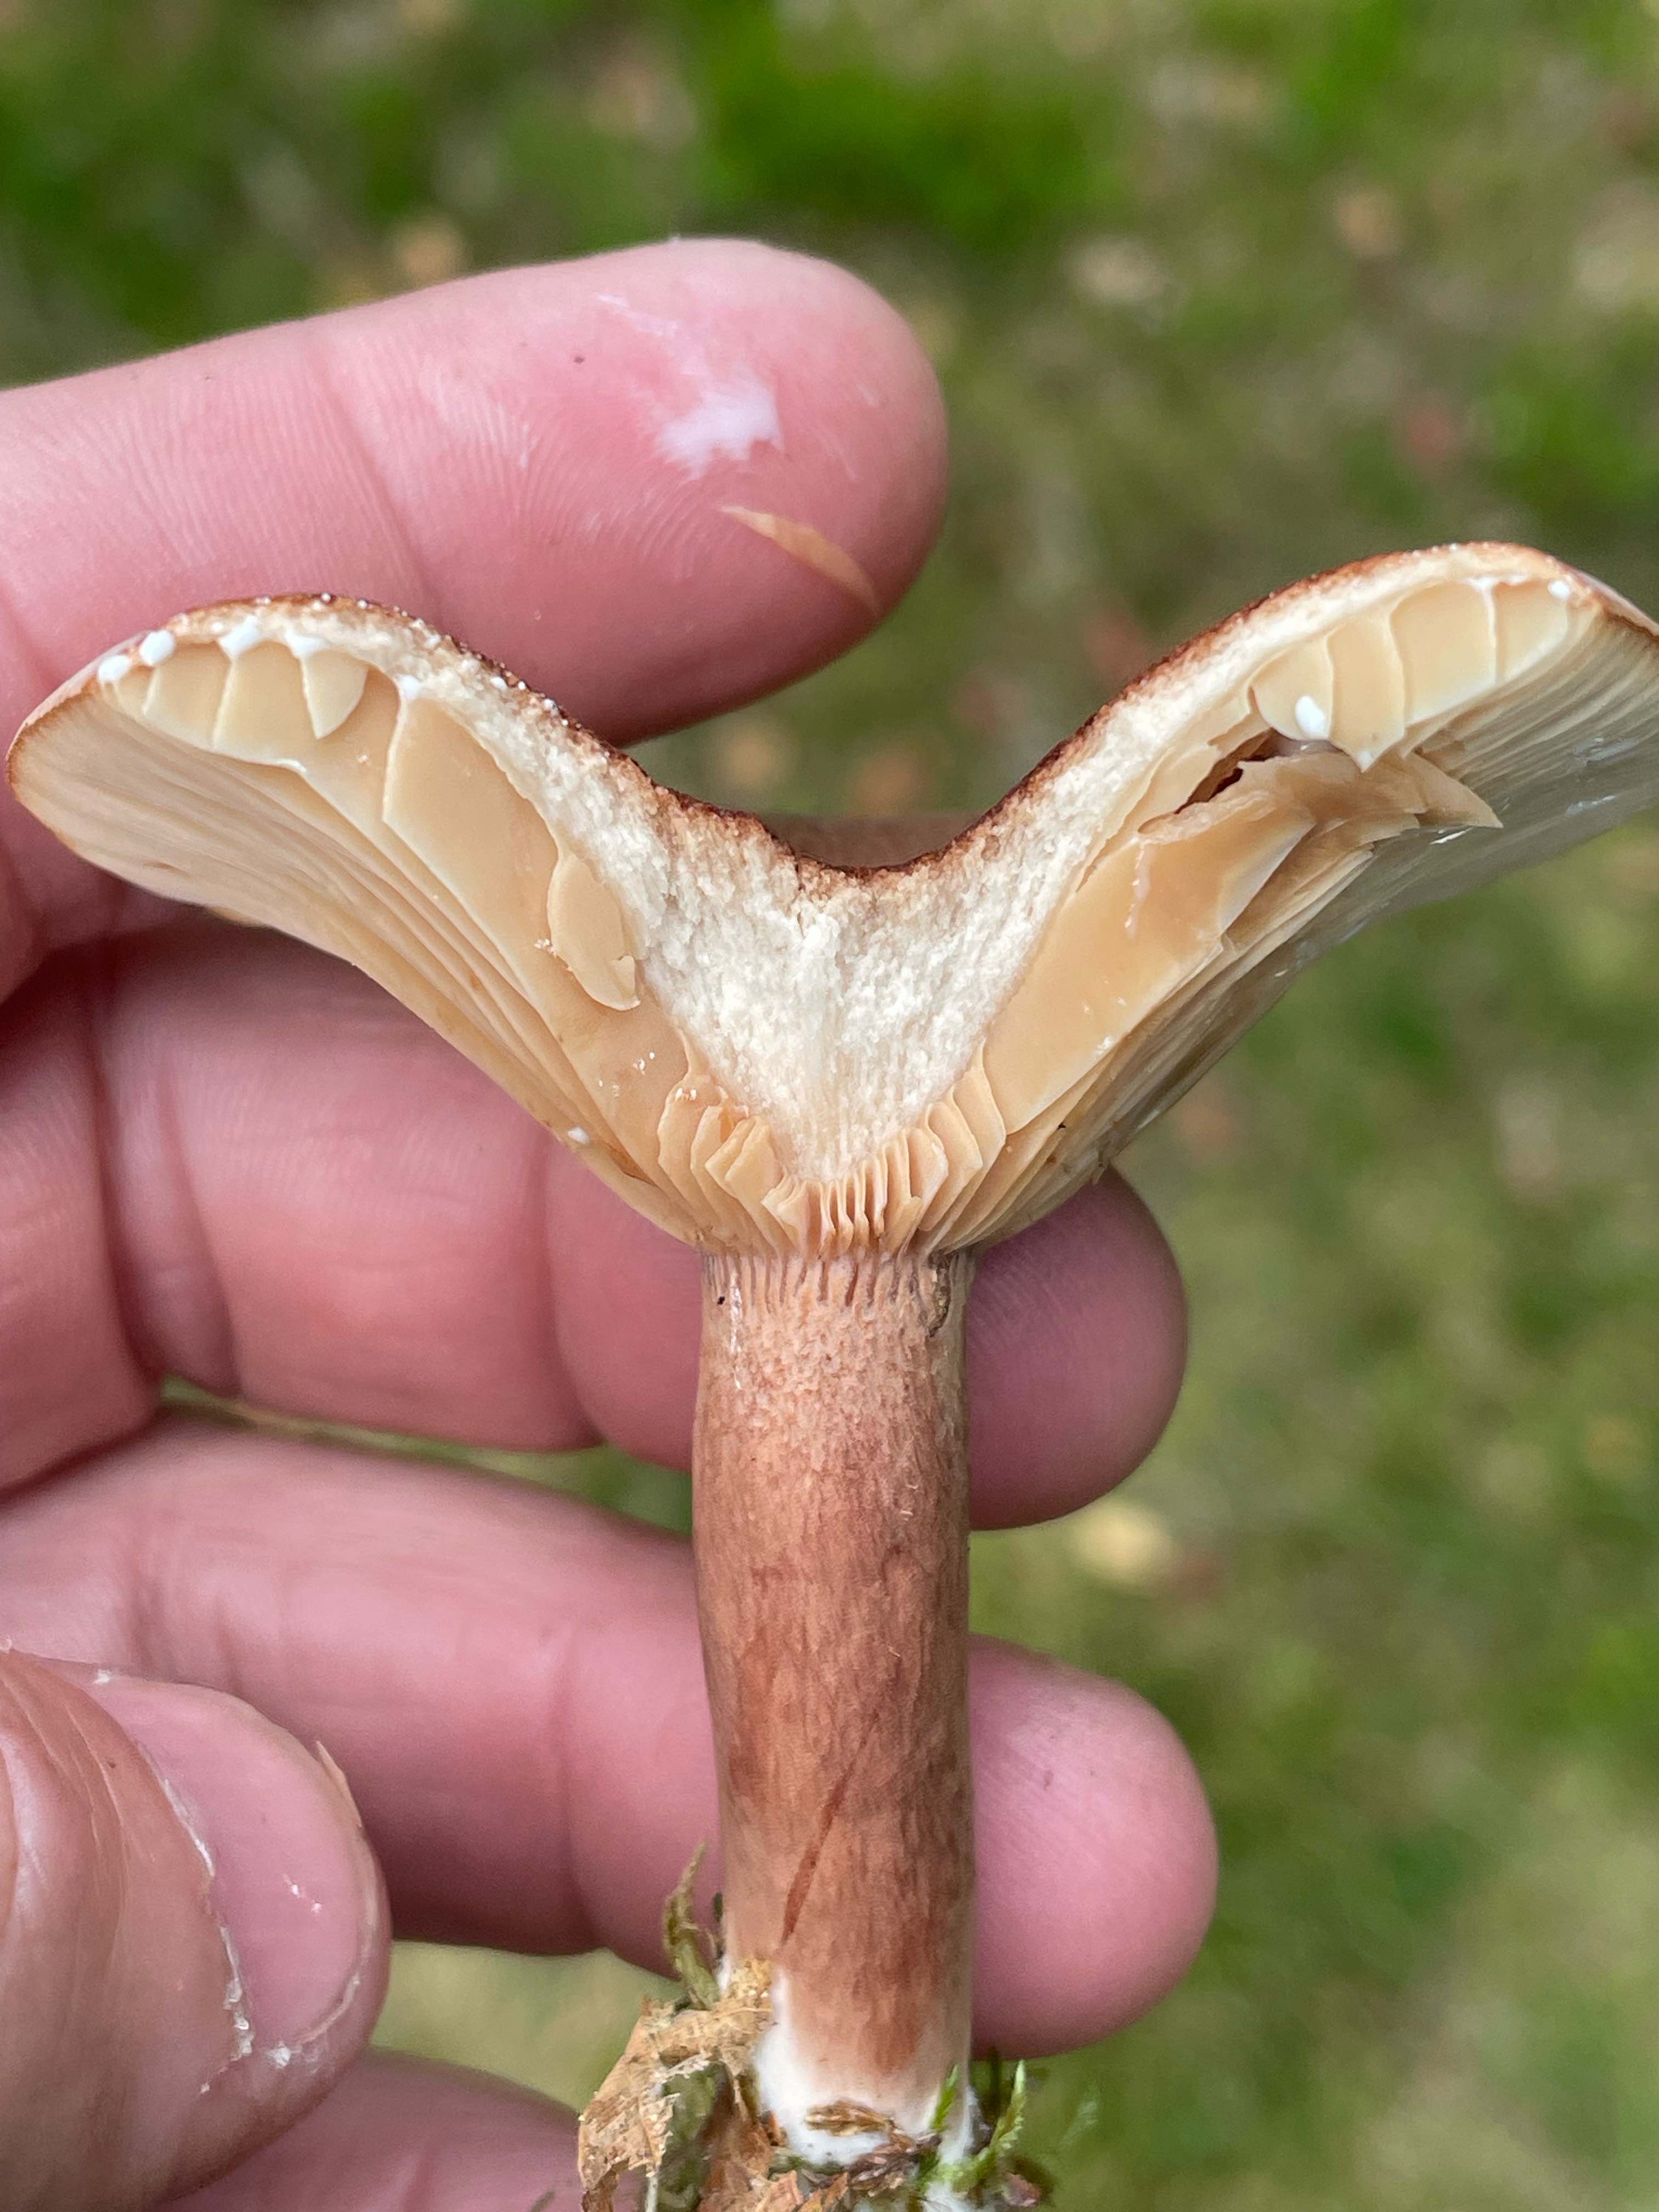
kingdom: Fungi
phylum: Basidiomycota
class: Agaricomycetes
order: Russulales
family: Russulaceae
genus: Lactarius
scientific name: Lactarius rufus
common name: rødbrun mælkehat
